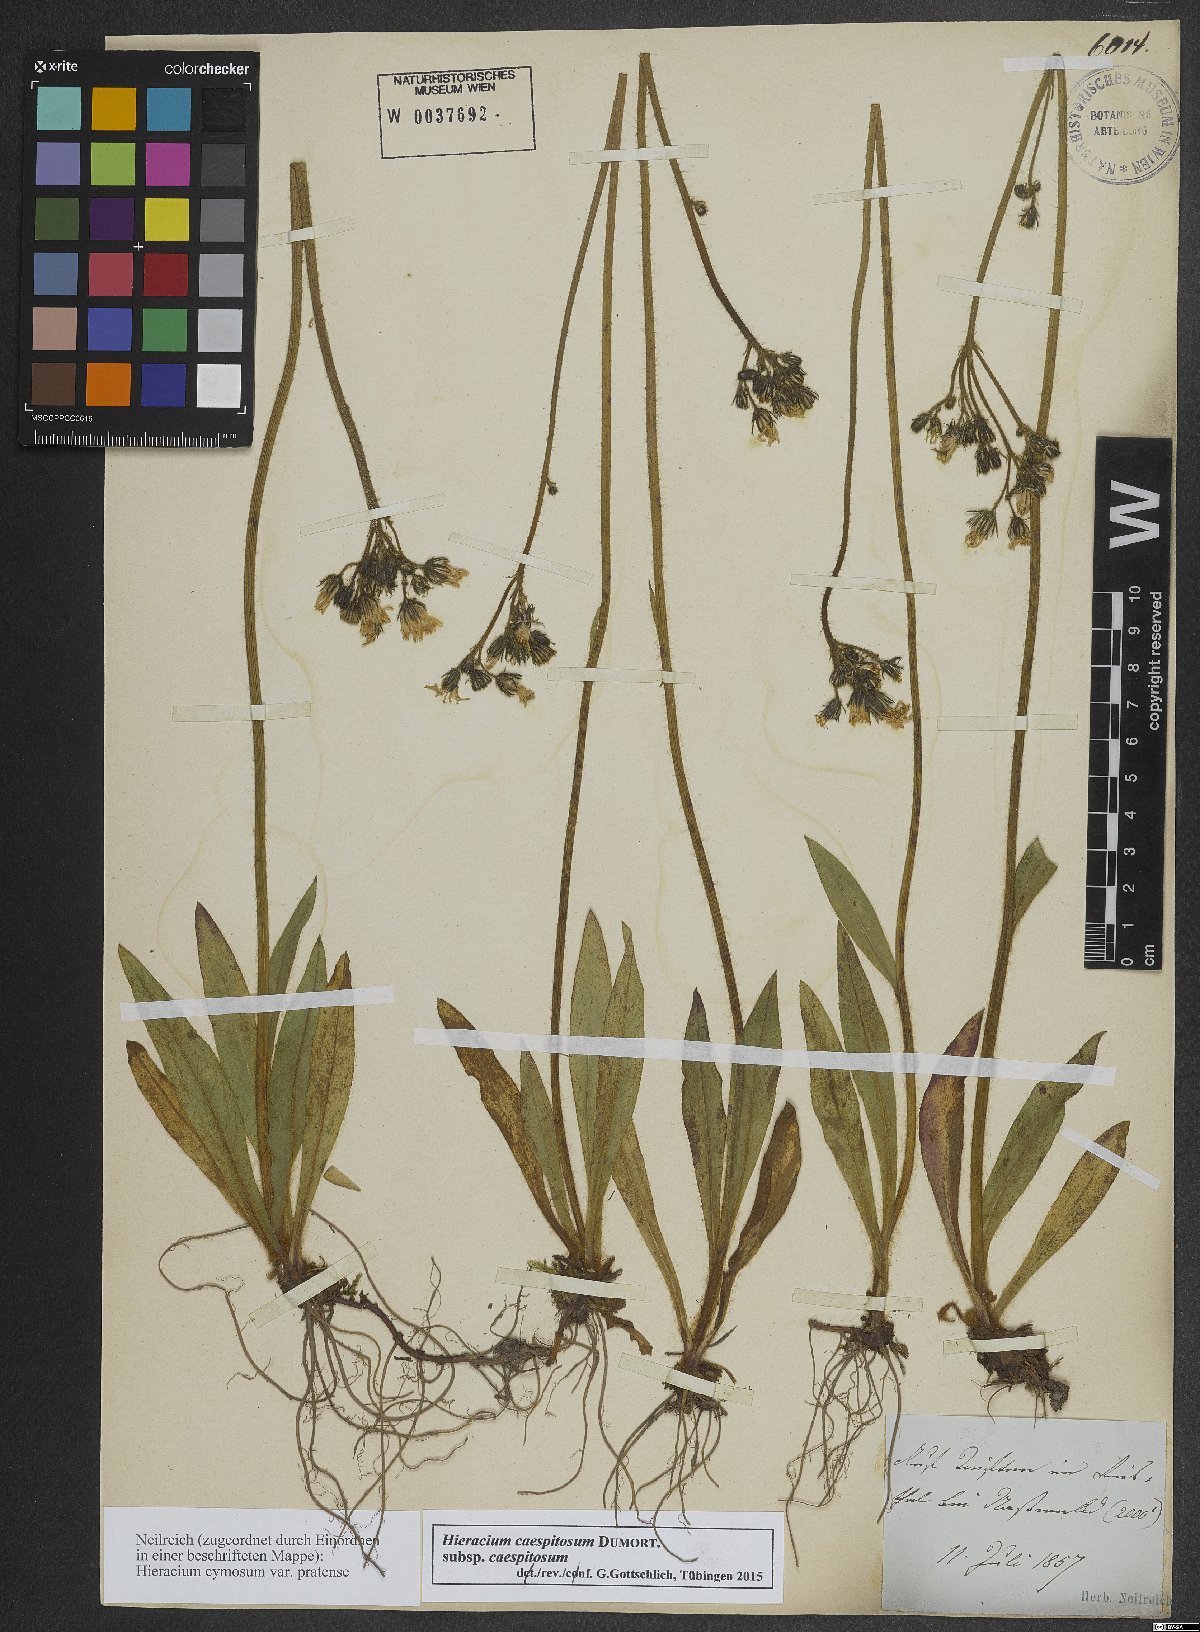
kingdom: Plantae
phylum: Tracheophyta
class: Magnoliopsida
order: Asterales
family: Asteraceae
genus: Pilosella
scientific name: Pilosella caespitosa
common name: Yellow fox-and-cubs
